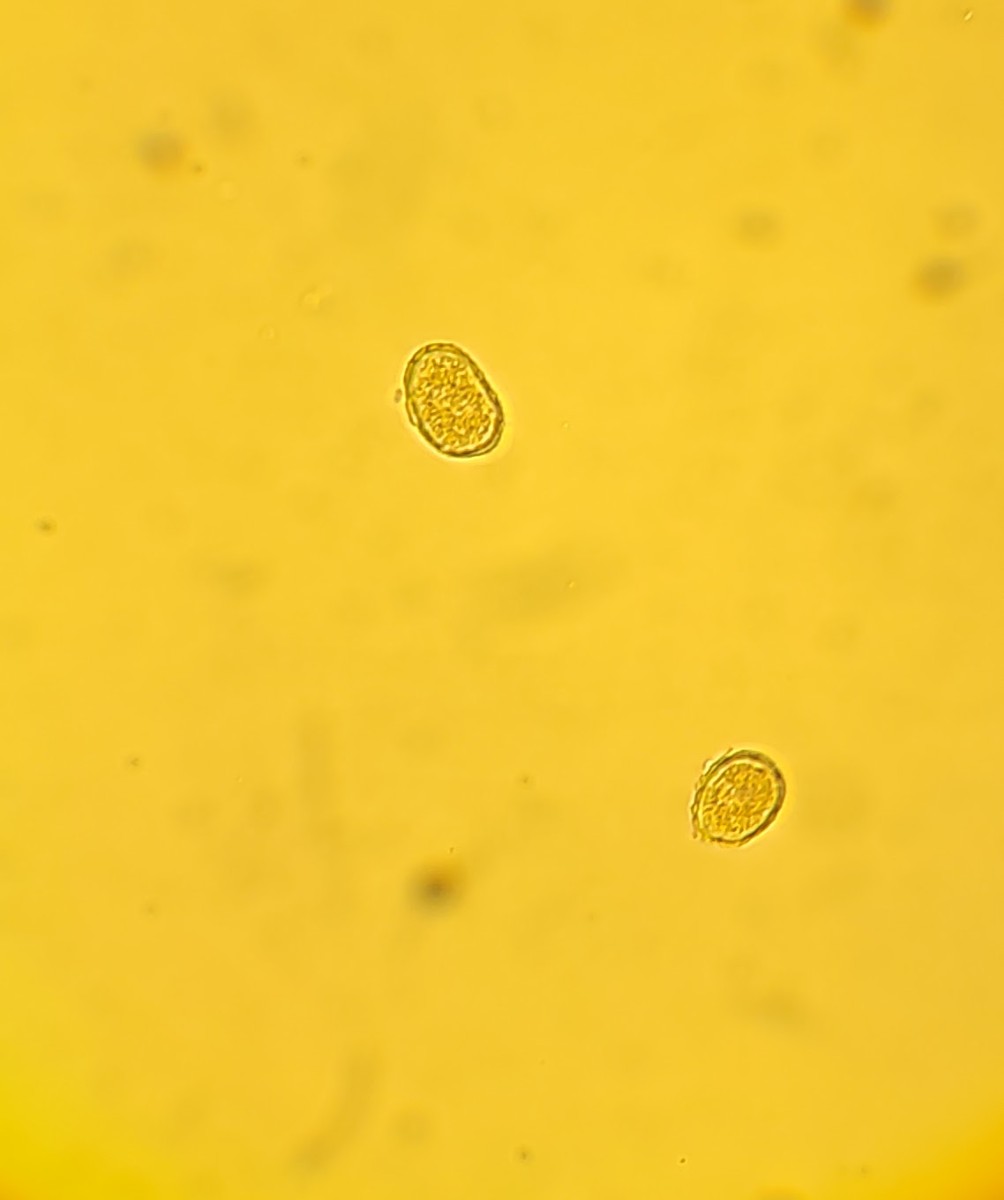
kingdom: Fungi
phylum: Basidiomycota
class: Pucciniomycetes
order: Pucciniales
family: Melampsoraceae
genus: Melampsora
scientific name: Melampsora populnea
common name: poppel-skorperust
